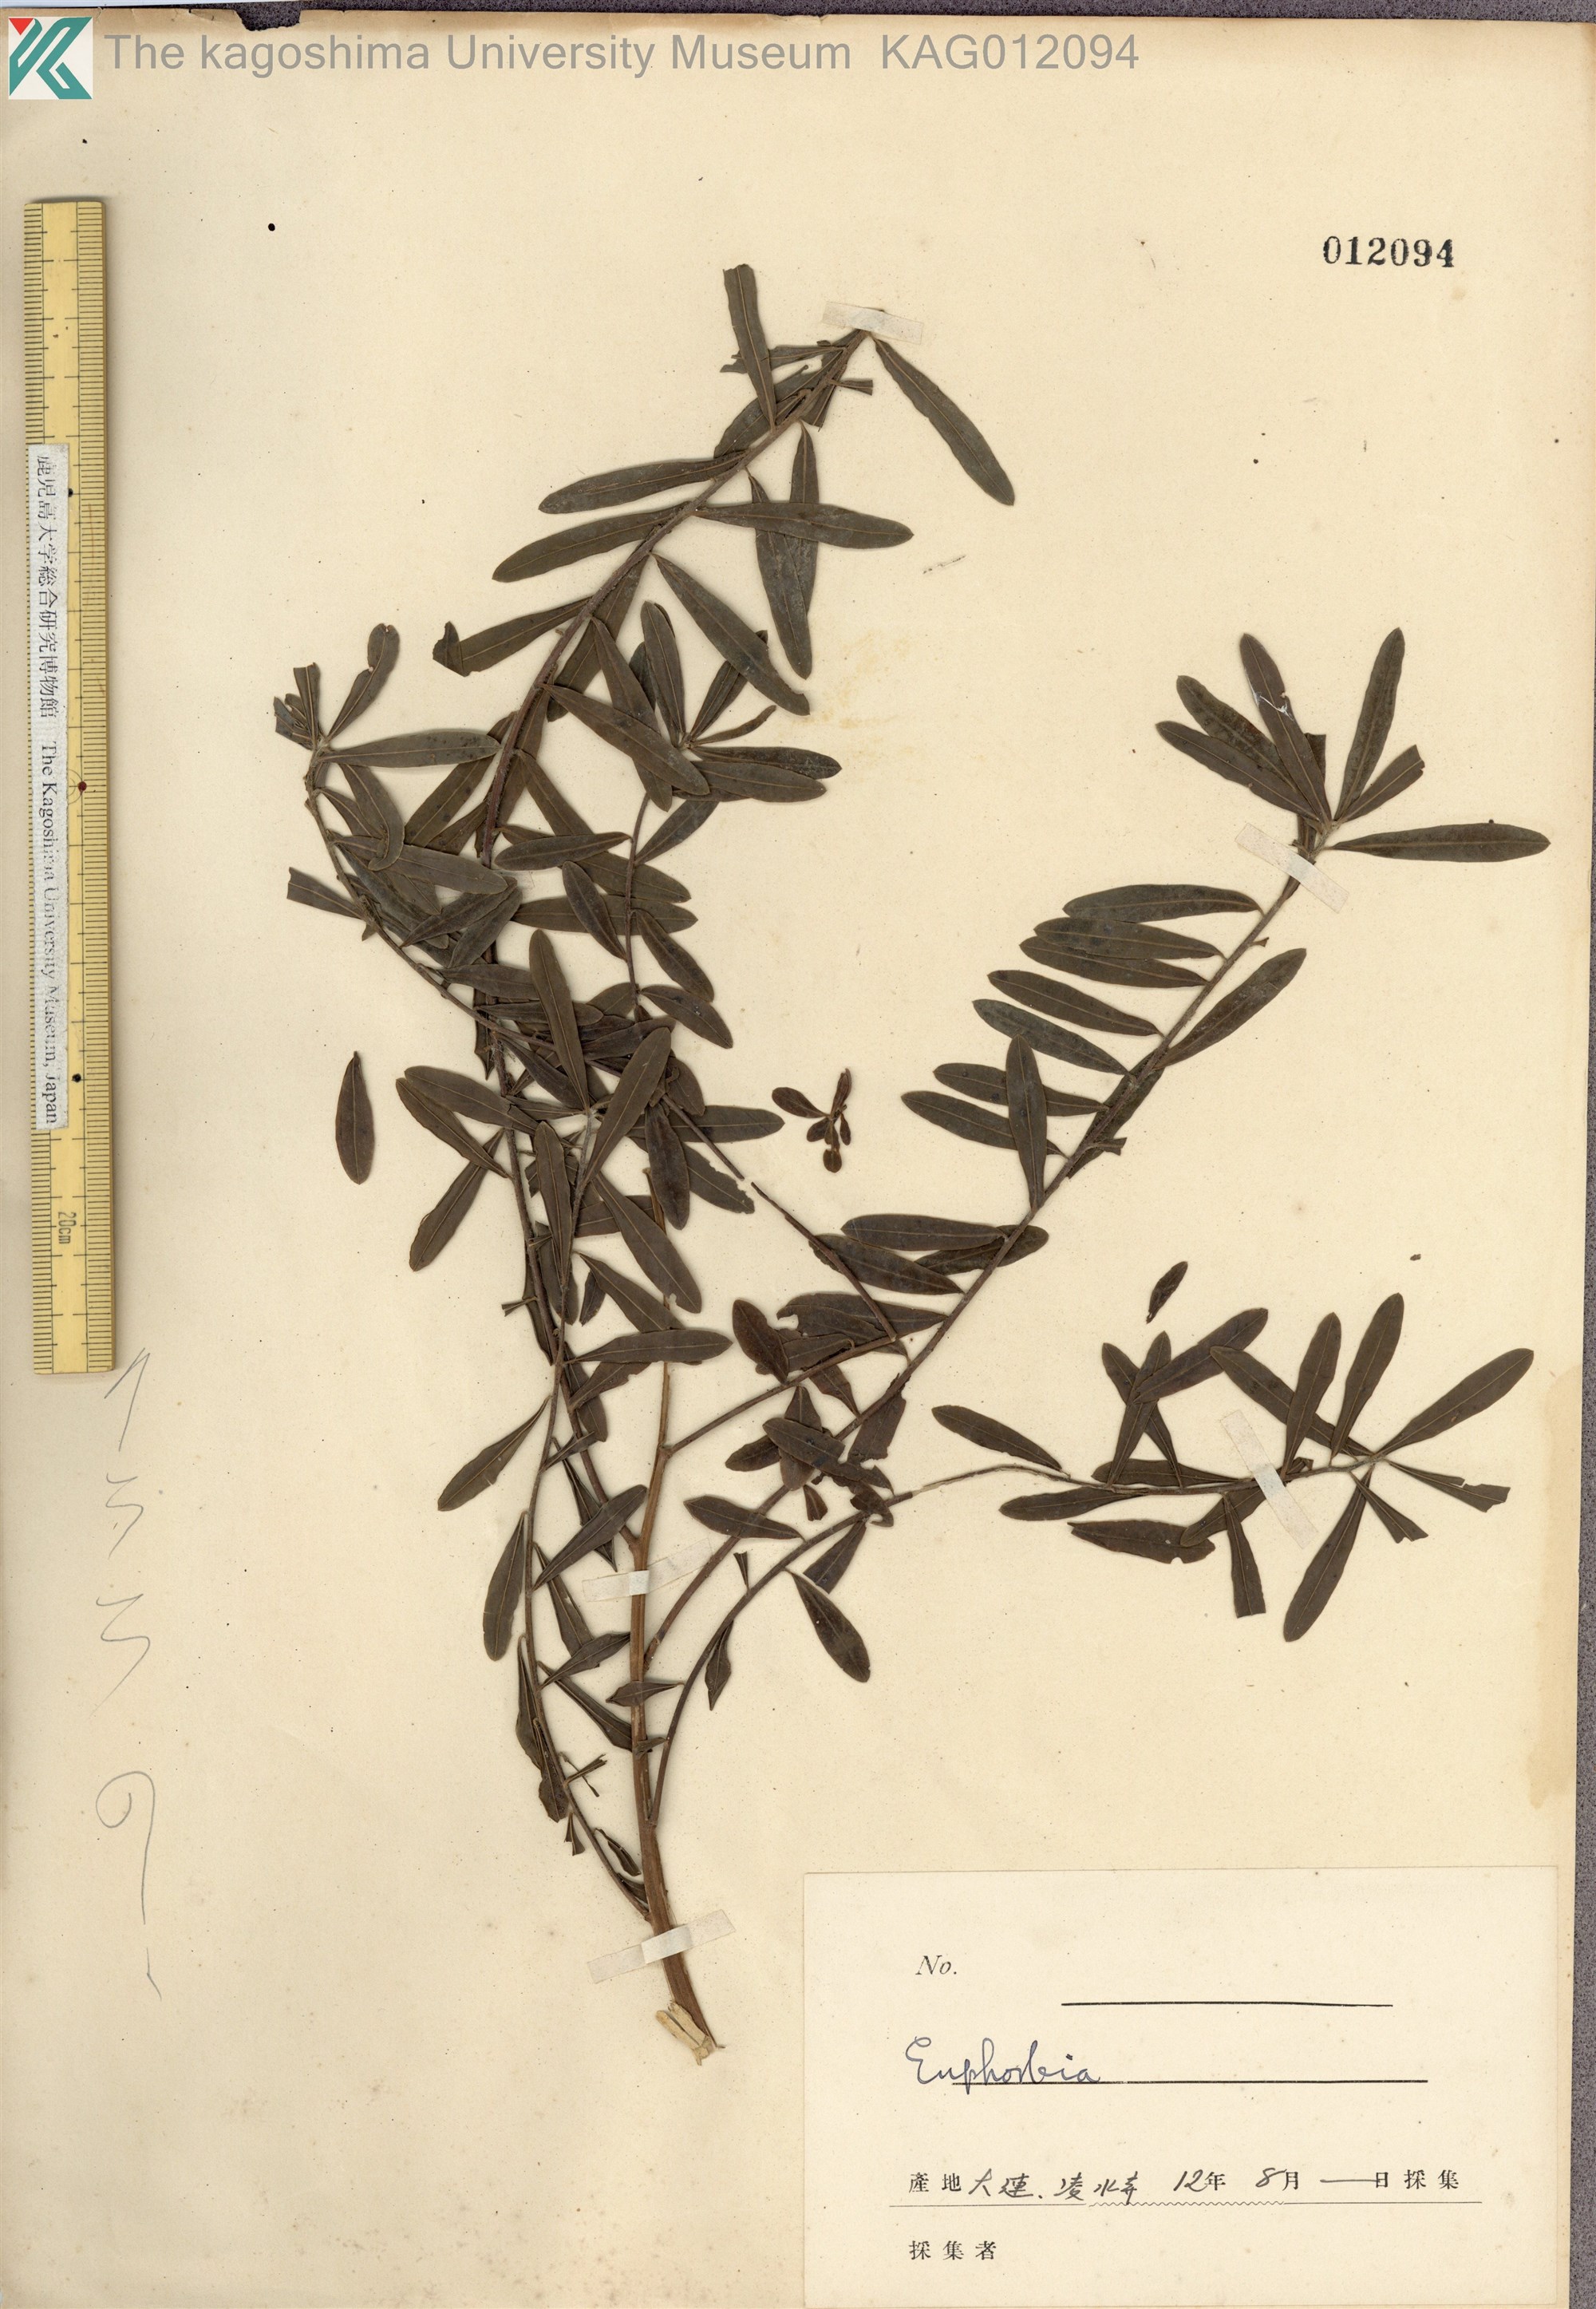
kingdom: Plantae
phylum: Tracheophyta
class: Magnoliopsida
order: Malpighiales
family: Euphorbiaceae
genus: Euphorbia
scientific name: Euphorbia pekinensis
